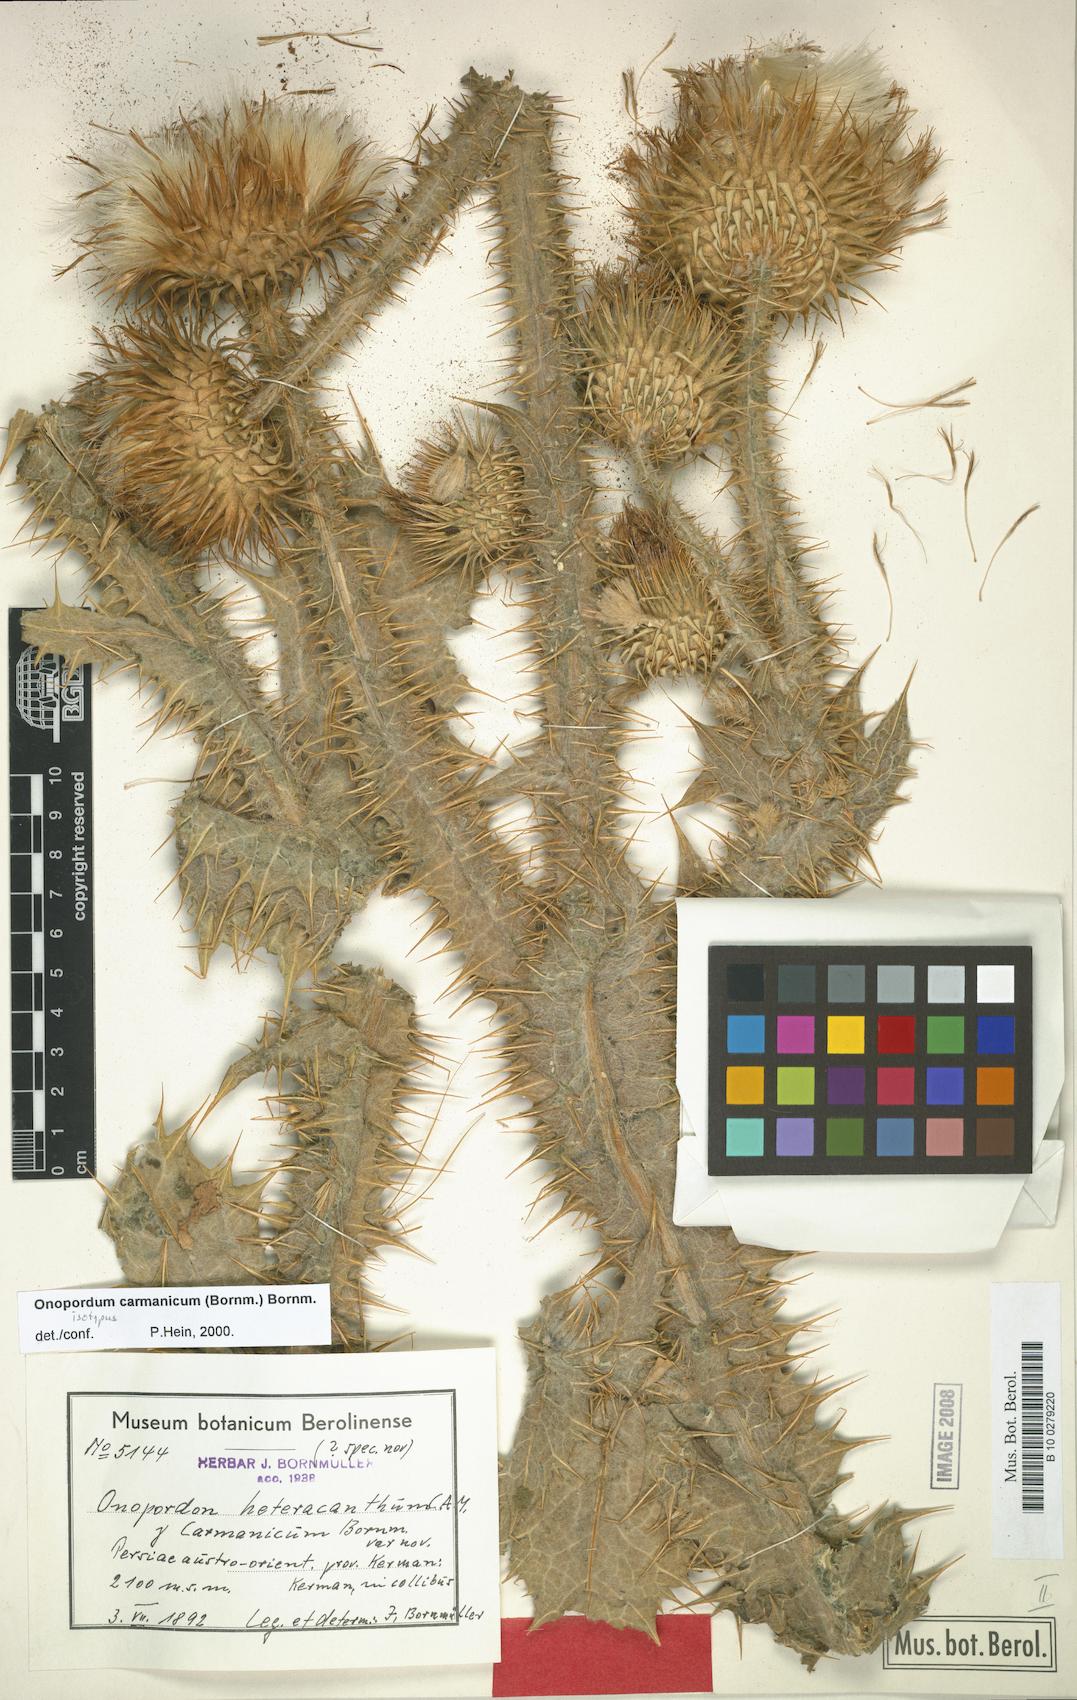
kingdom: Plantae
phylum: Tracheophyta
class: Magnoliopsida
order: Asterales
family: Asteraceae
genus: Onopordum
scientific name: Onopordum carmanicum
